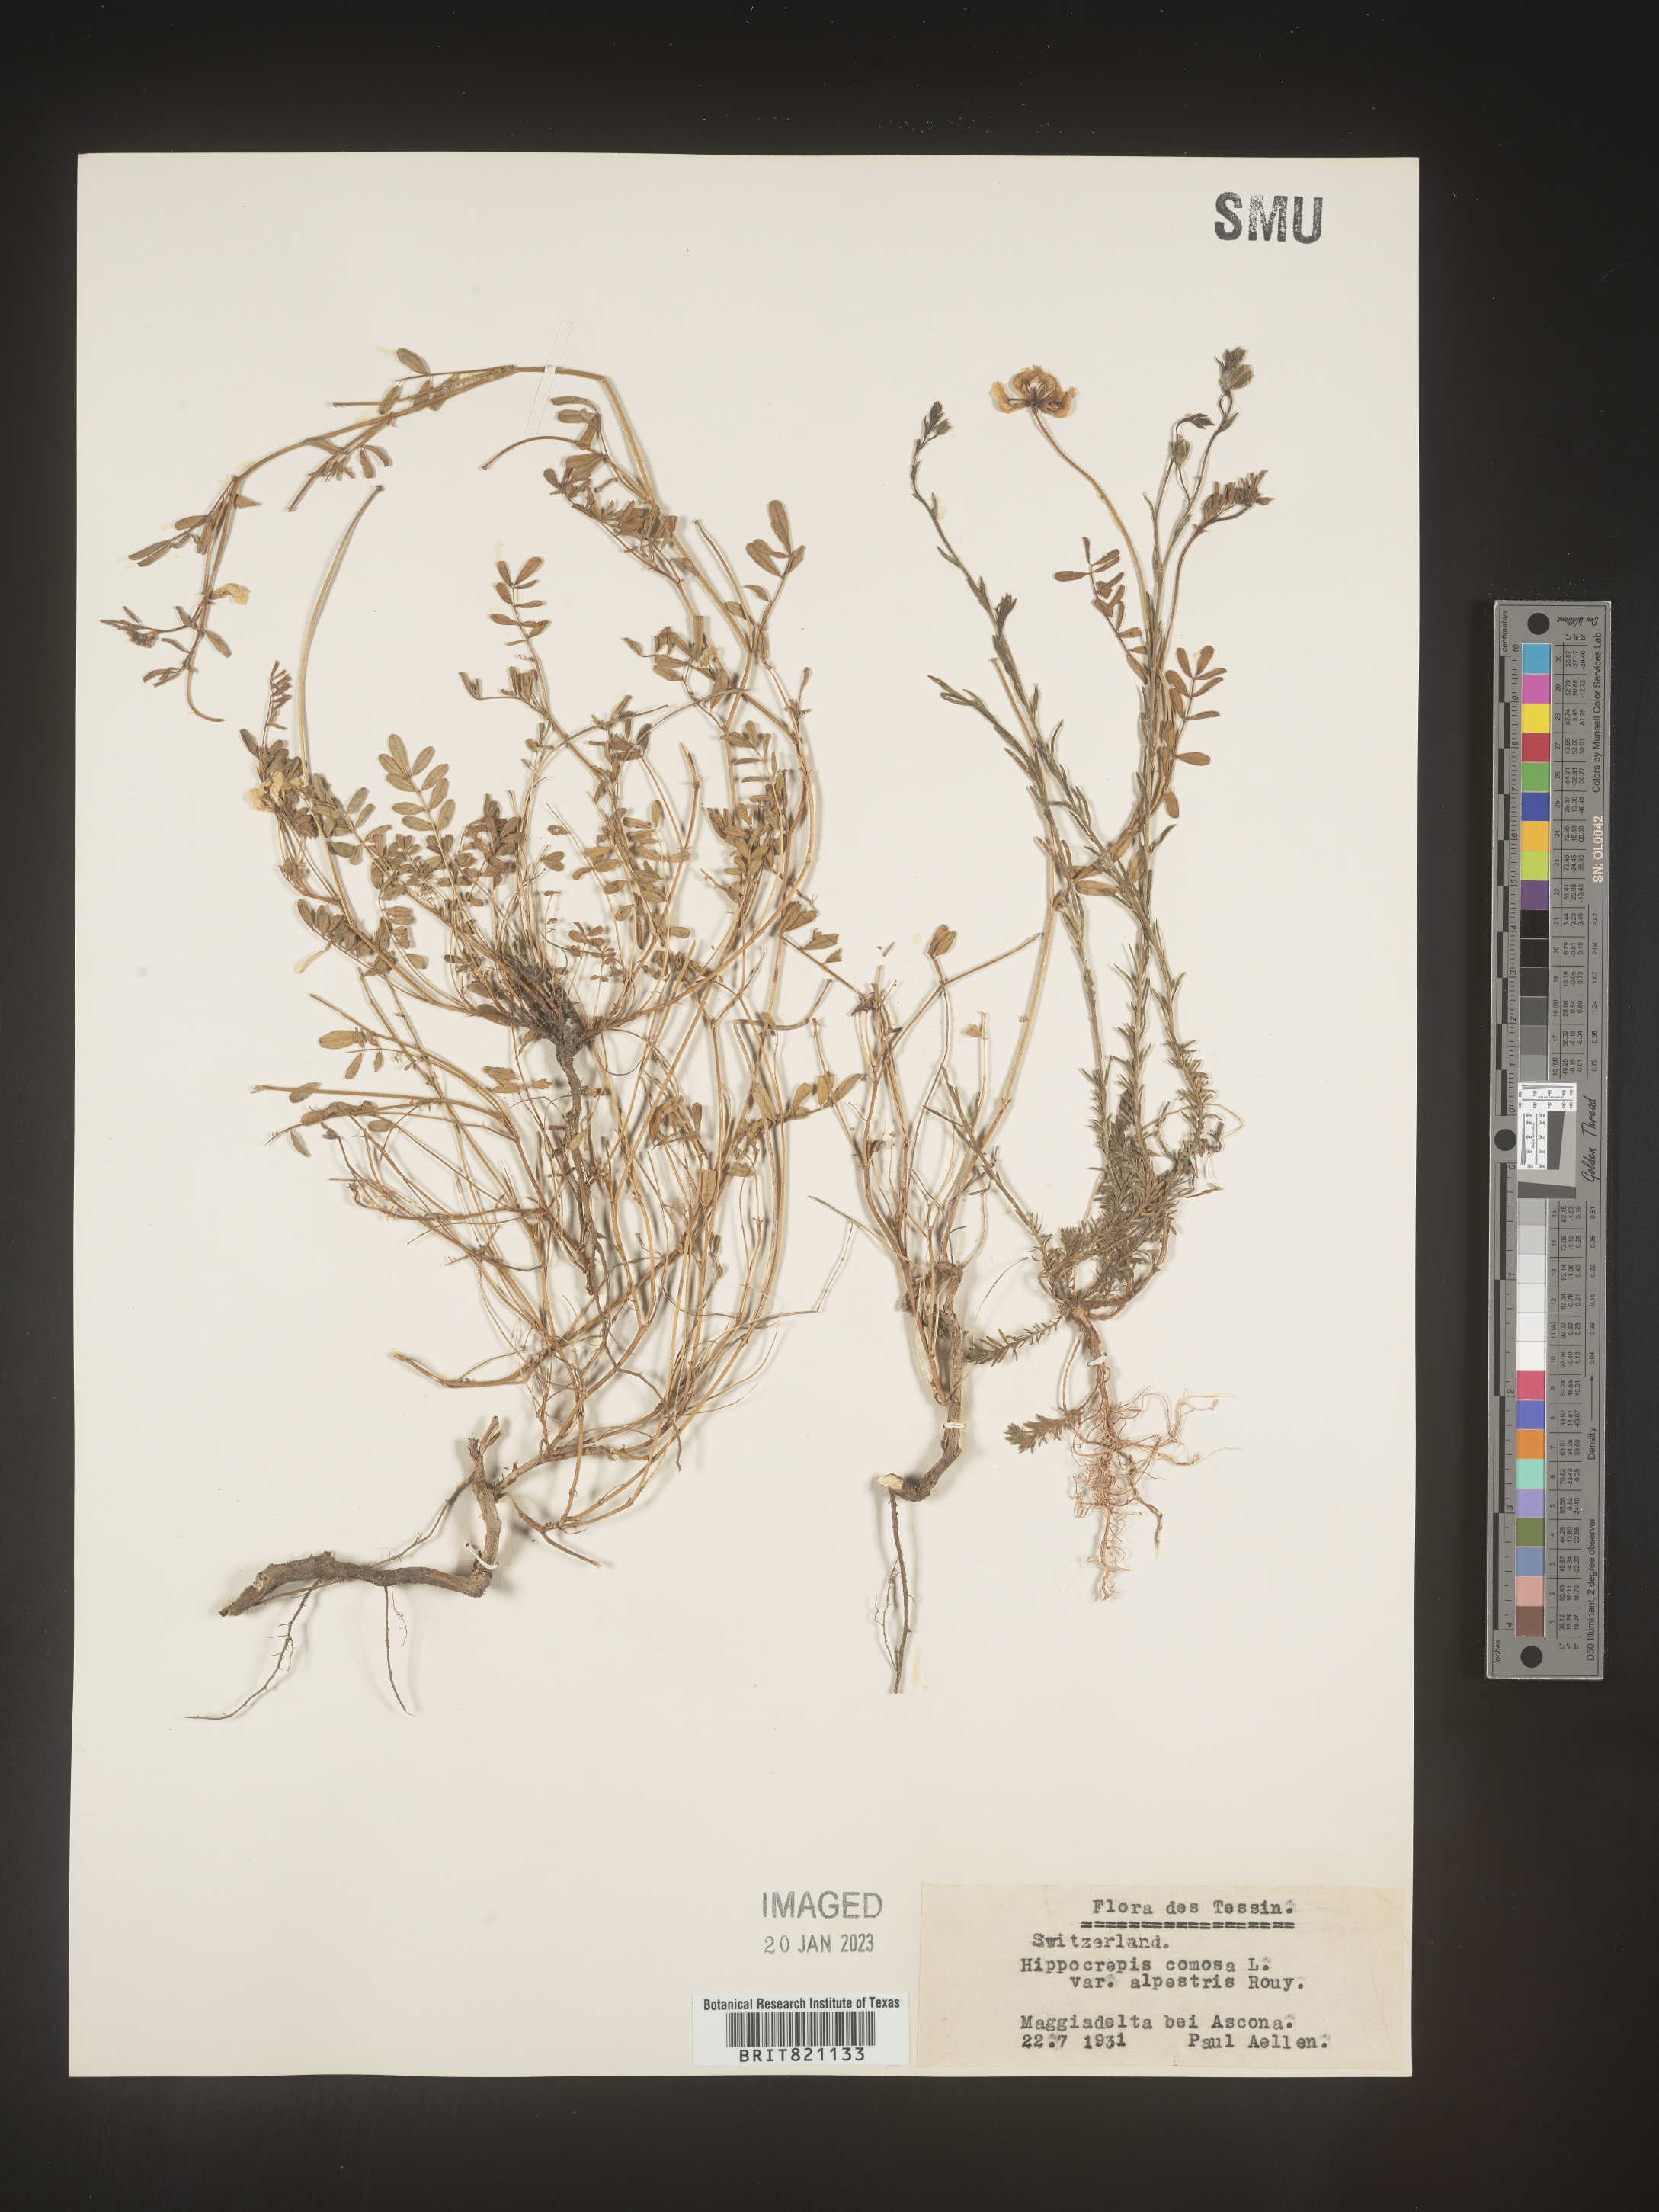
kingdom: Plantae
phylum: Tracheophyta
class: Magnoliopsida
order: Fabales
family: Fabaceae
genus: Hippocrepis
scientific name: Hippocrepis
